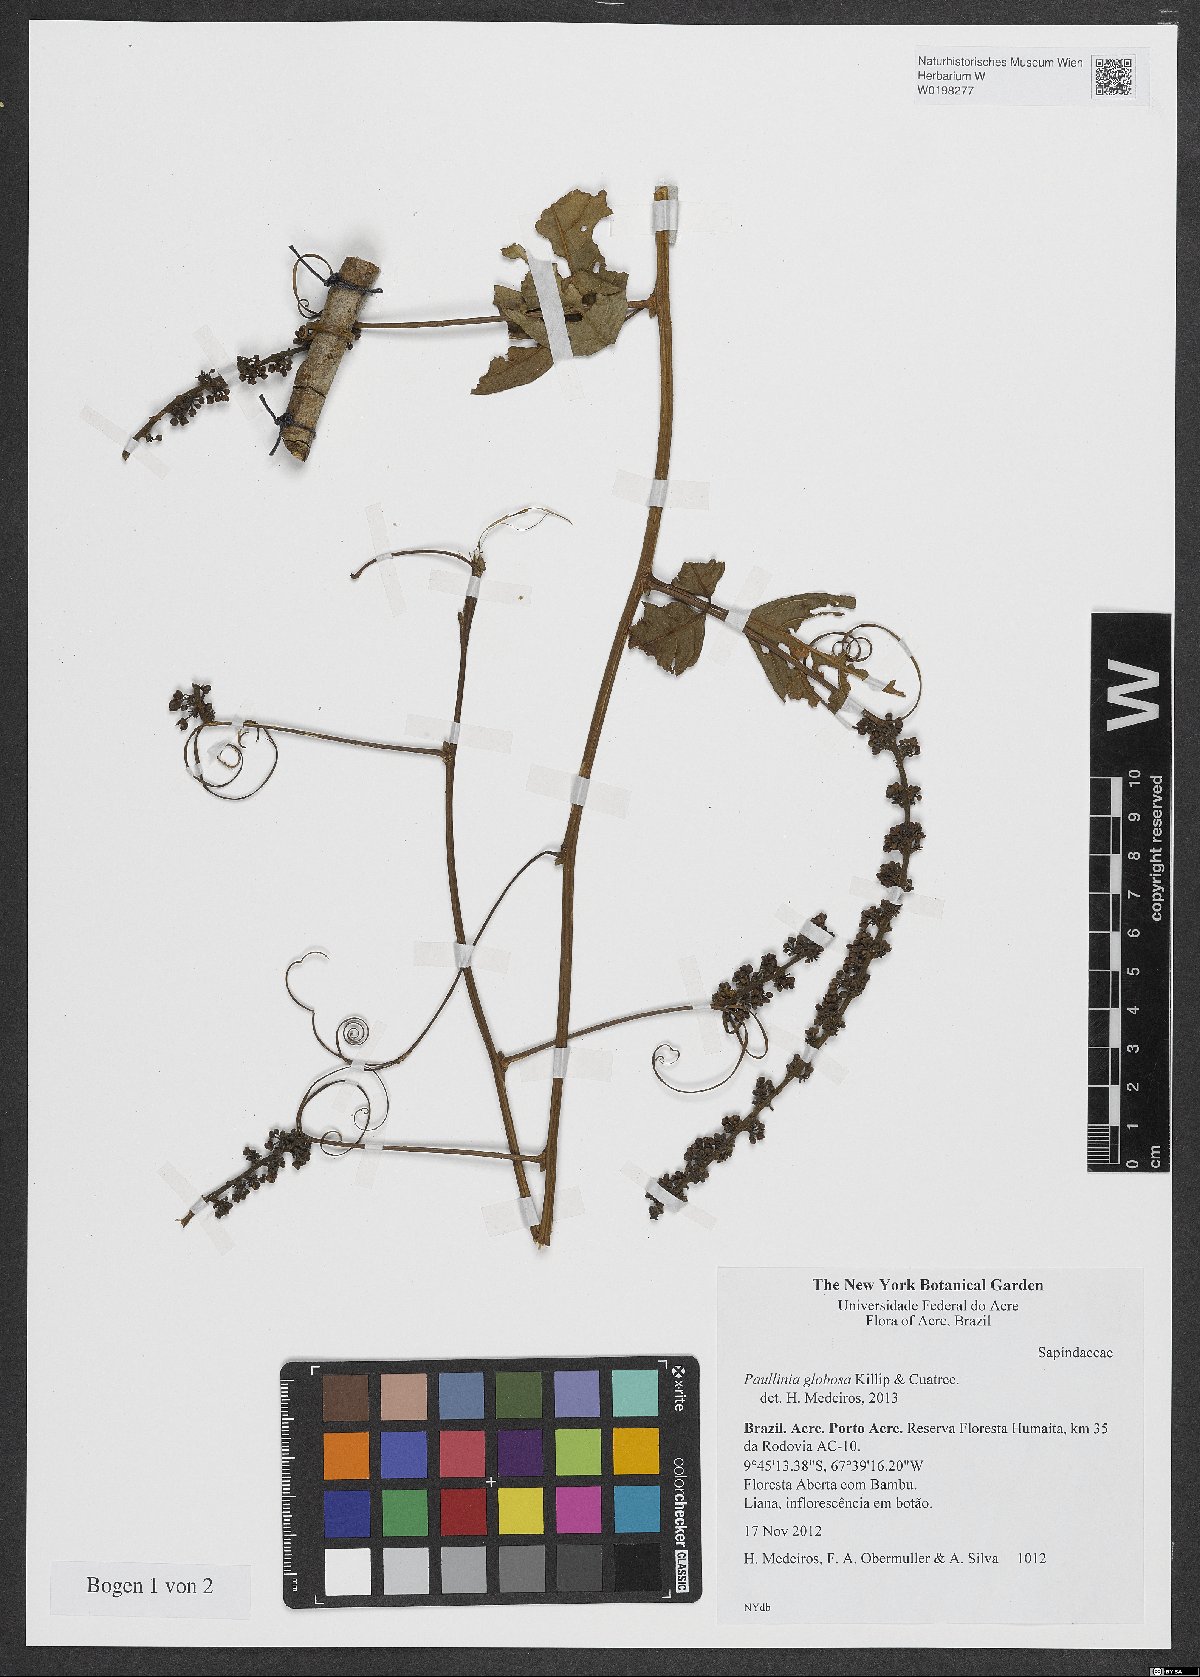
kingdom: Plantae
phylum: Tracheophyta
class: Magnoliopsida
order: Sapindales
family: Sapindaceae
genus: Paullinia
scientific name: Paullinia globosa
